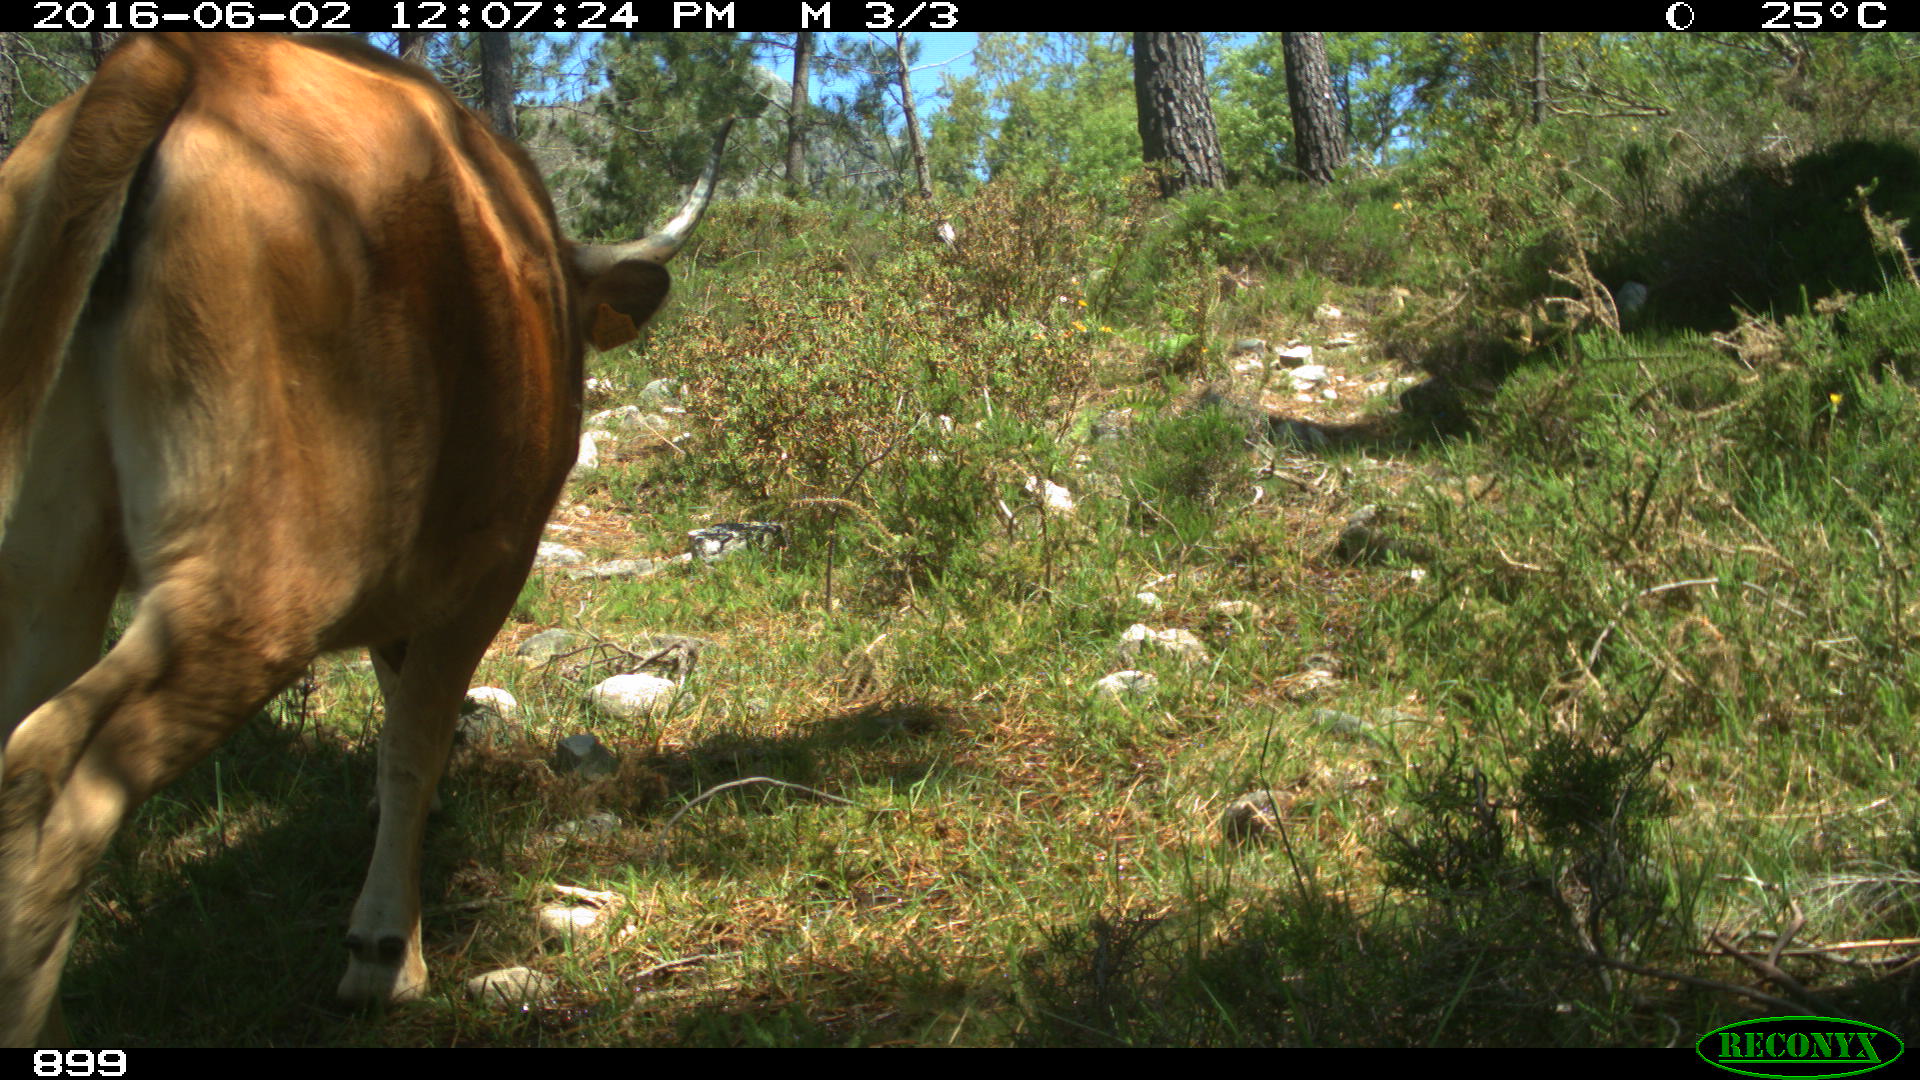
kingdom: Animalia
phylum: Chordata
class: Mammalia
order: Artiodactyla
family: Bovidae
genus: Bos
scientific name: Bos taurus
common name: Domesticated cattle
